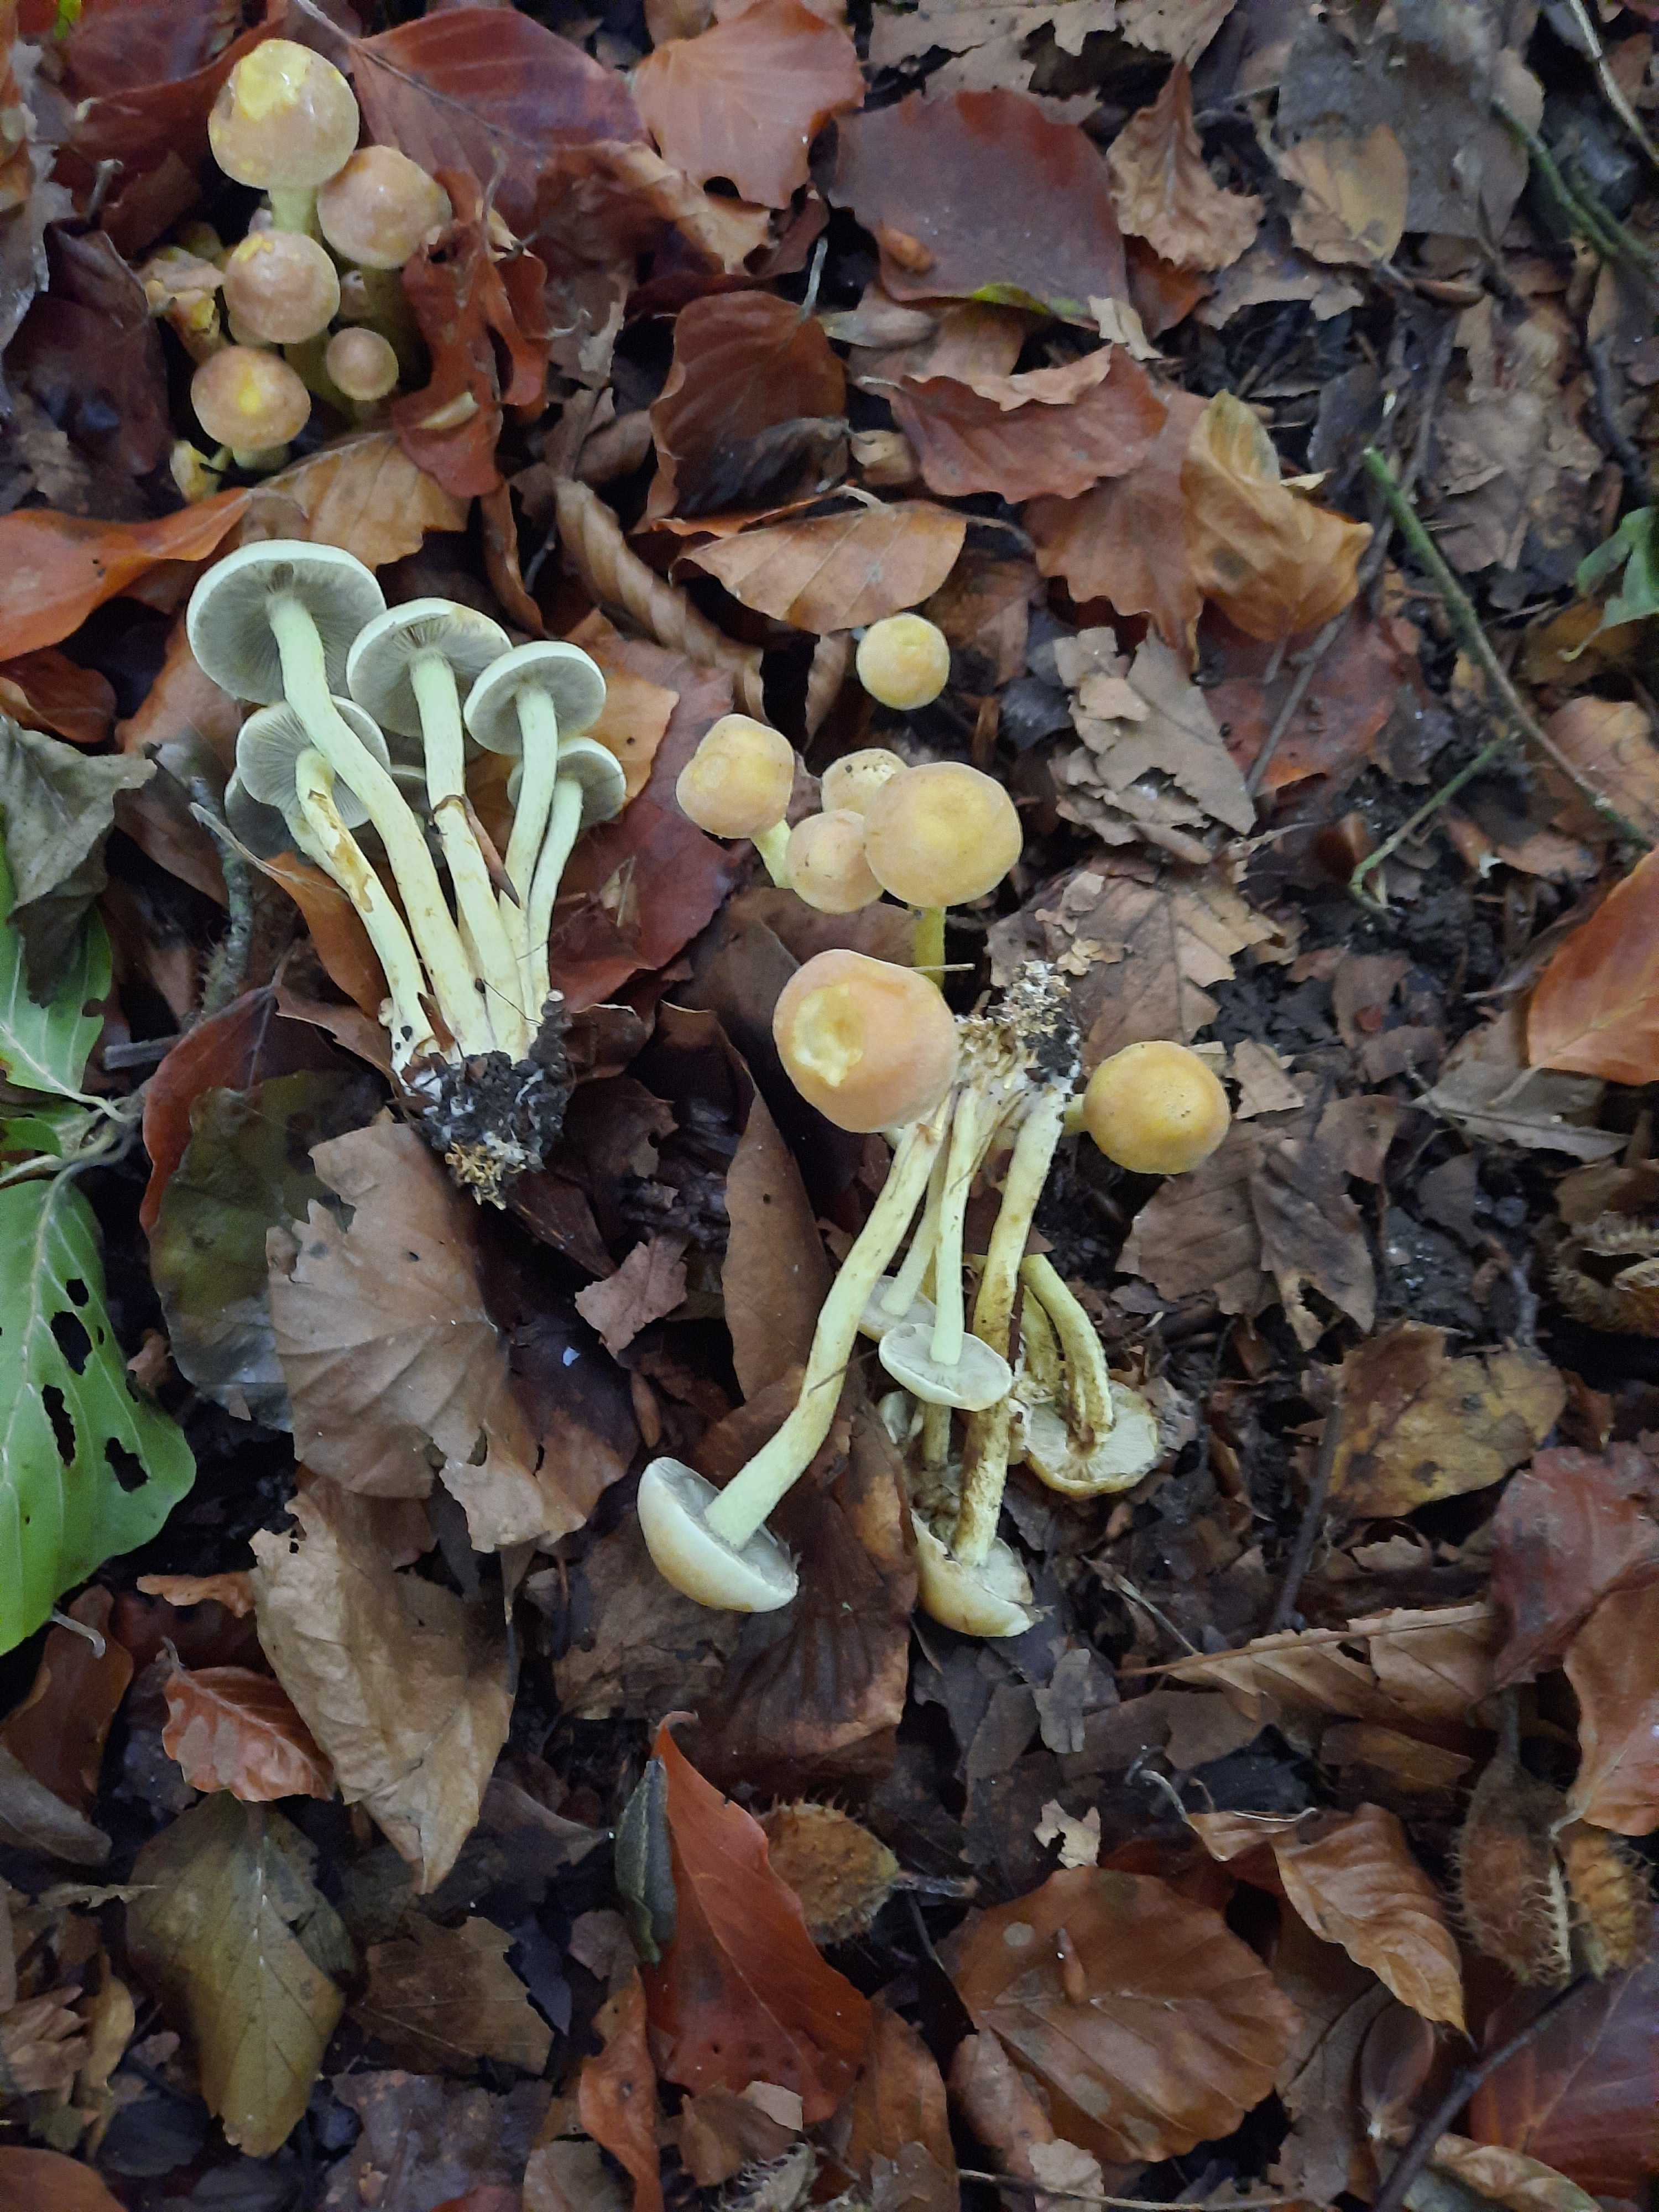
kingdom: Fungi
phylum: Basidiomycota
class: Agaricomycetes
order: Agaricales
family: Strophariaceae
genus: Hypholoma
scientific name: Hypholoma fasciculare
